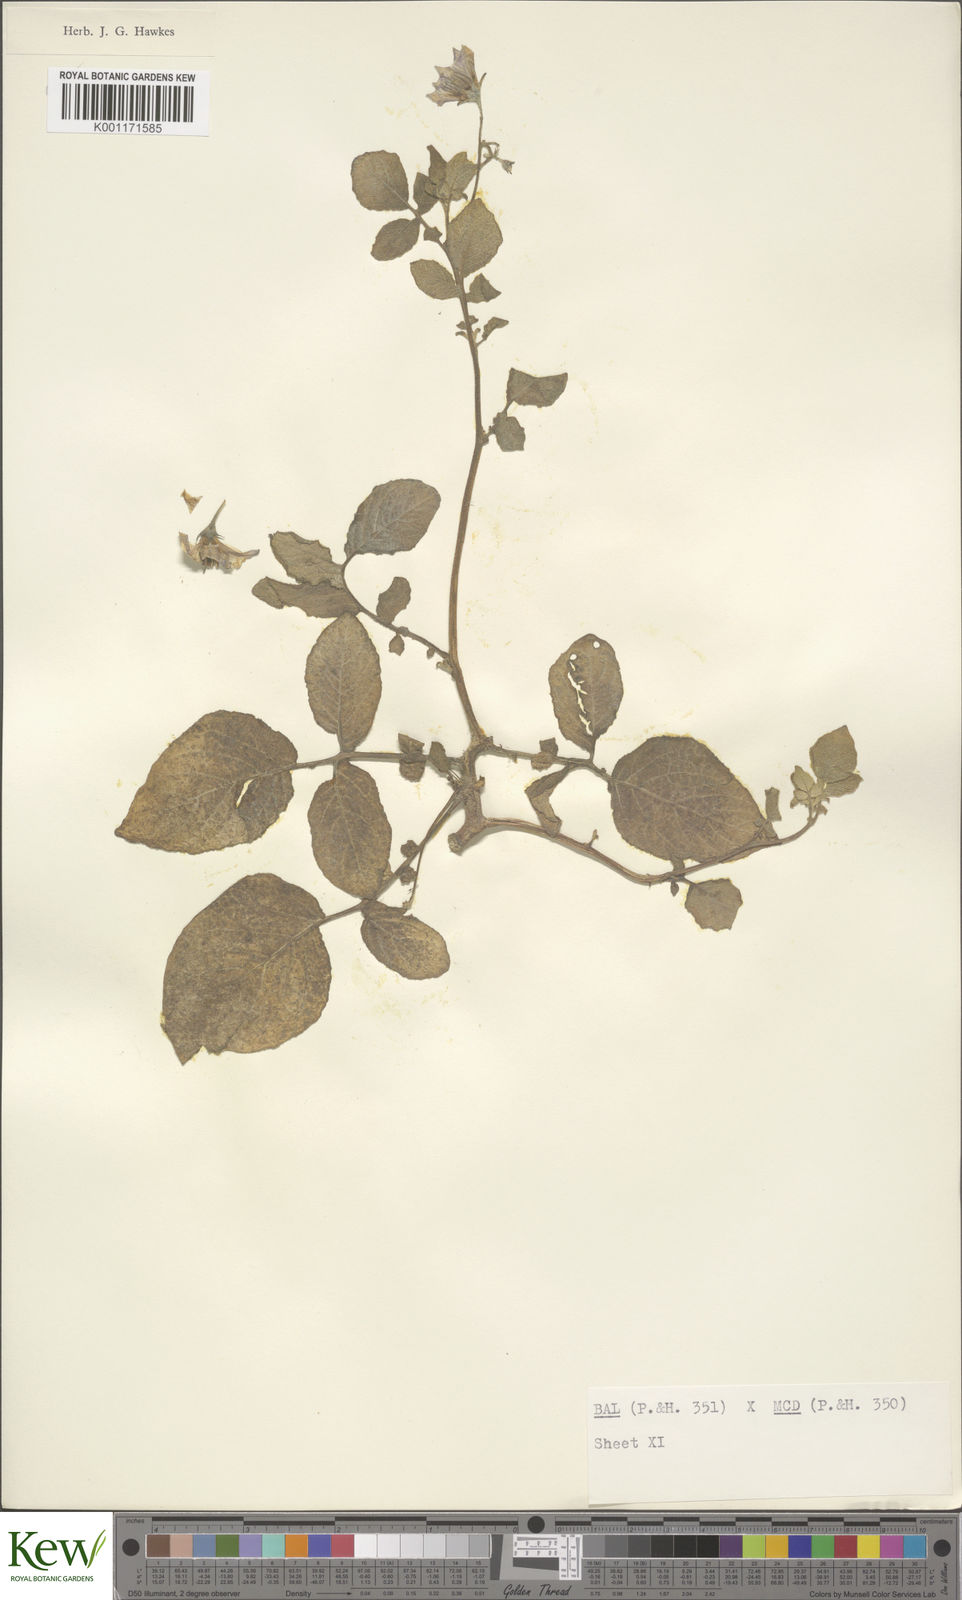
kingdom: Plantae
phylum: Tracheophyta
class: Magnoliopsida
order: Solanales
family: Solanaceae
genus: Solanum
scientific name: Solanum vernei
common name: Purple potato
